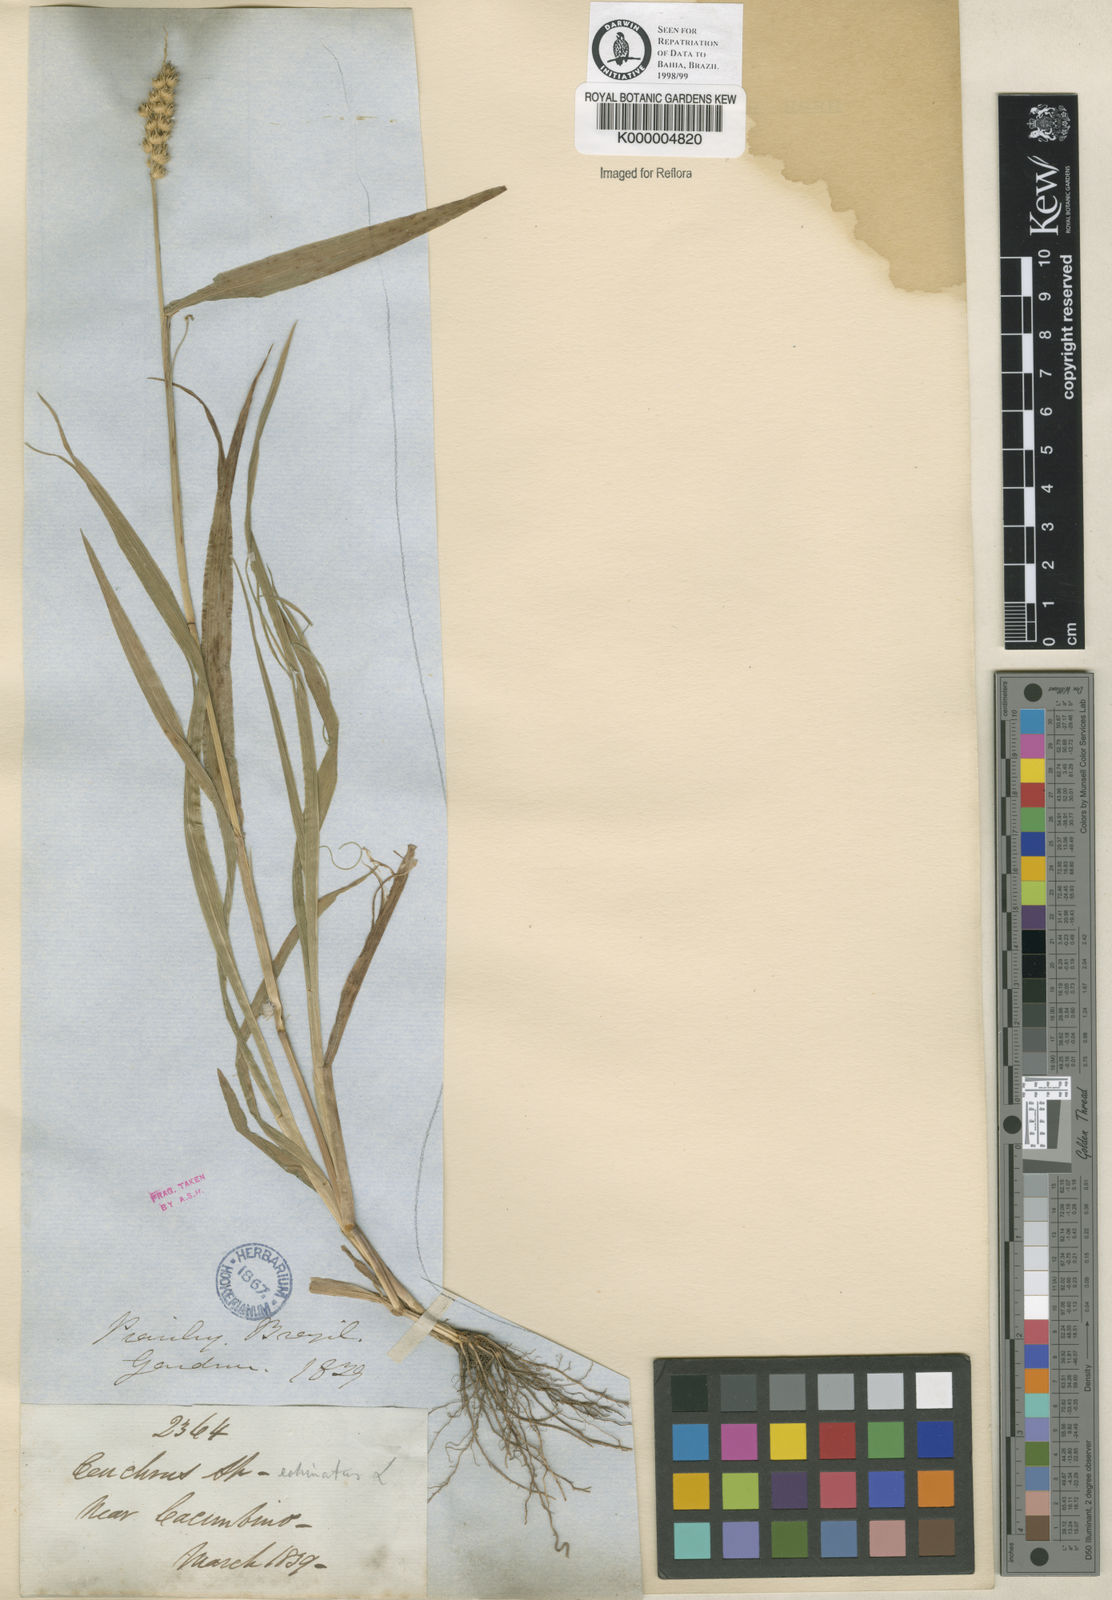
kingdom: Plantae
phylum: Tracheophyta
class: Liliopsida
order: Poales
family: Poaceae
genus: Cenchrus
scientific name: Cenchrus brownii
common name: Slim-bristle sandbur
